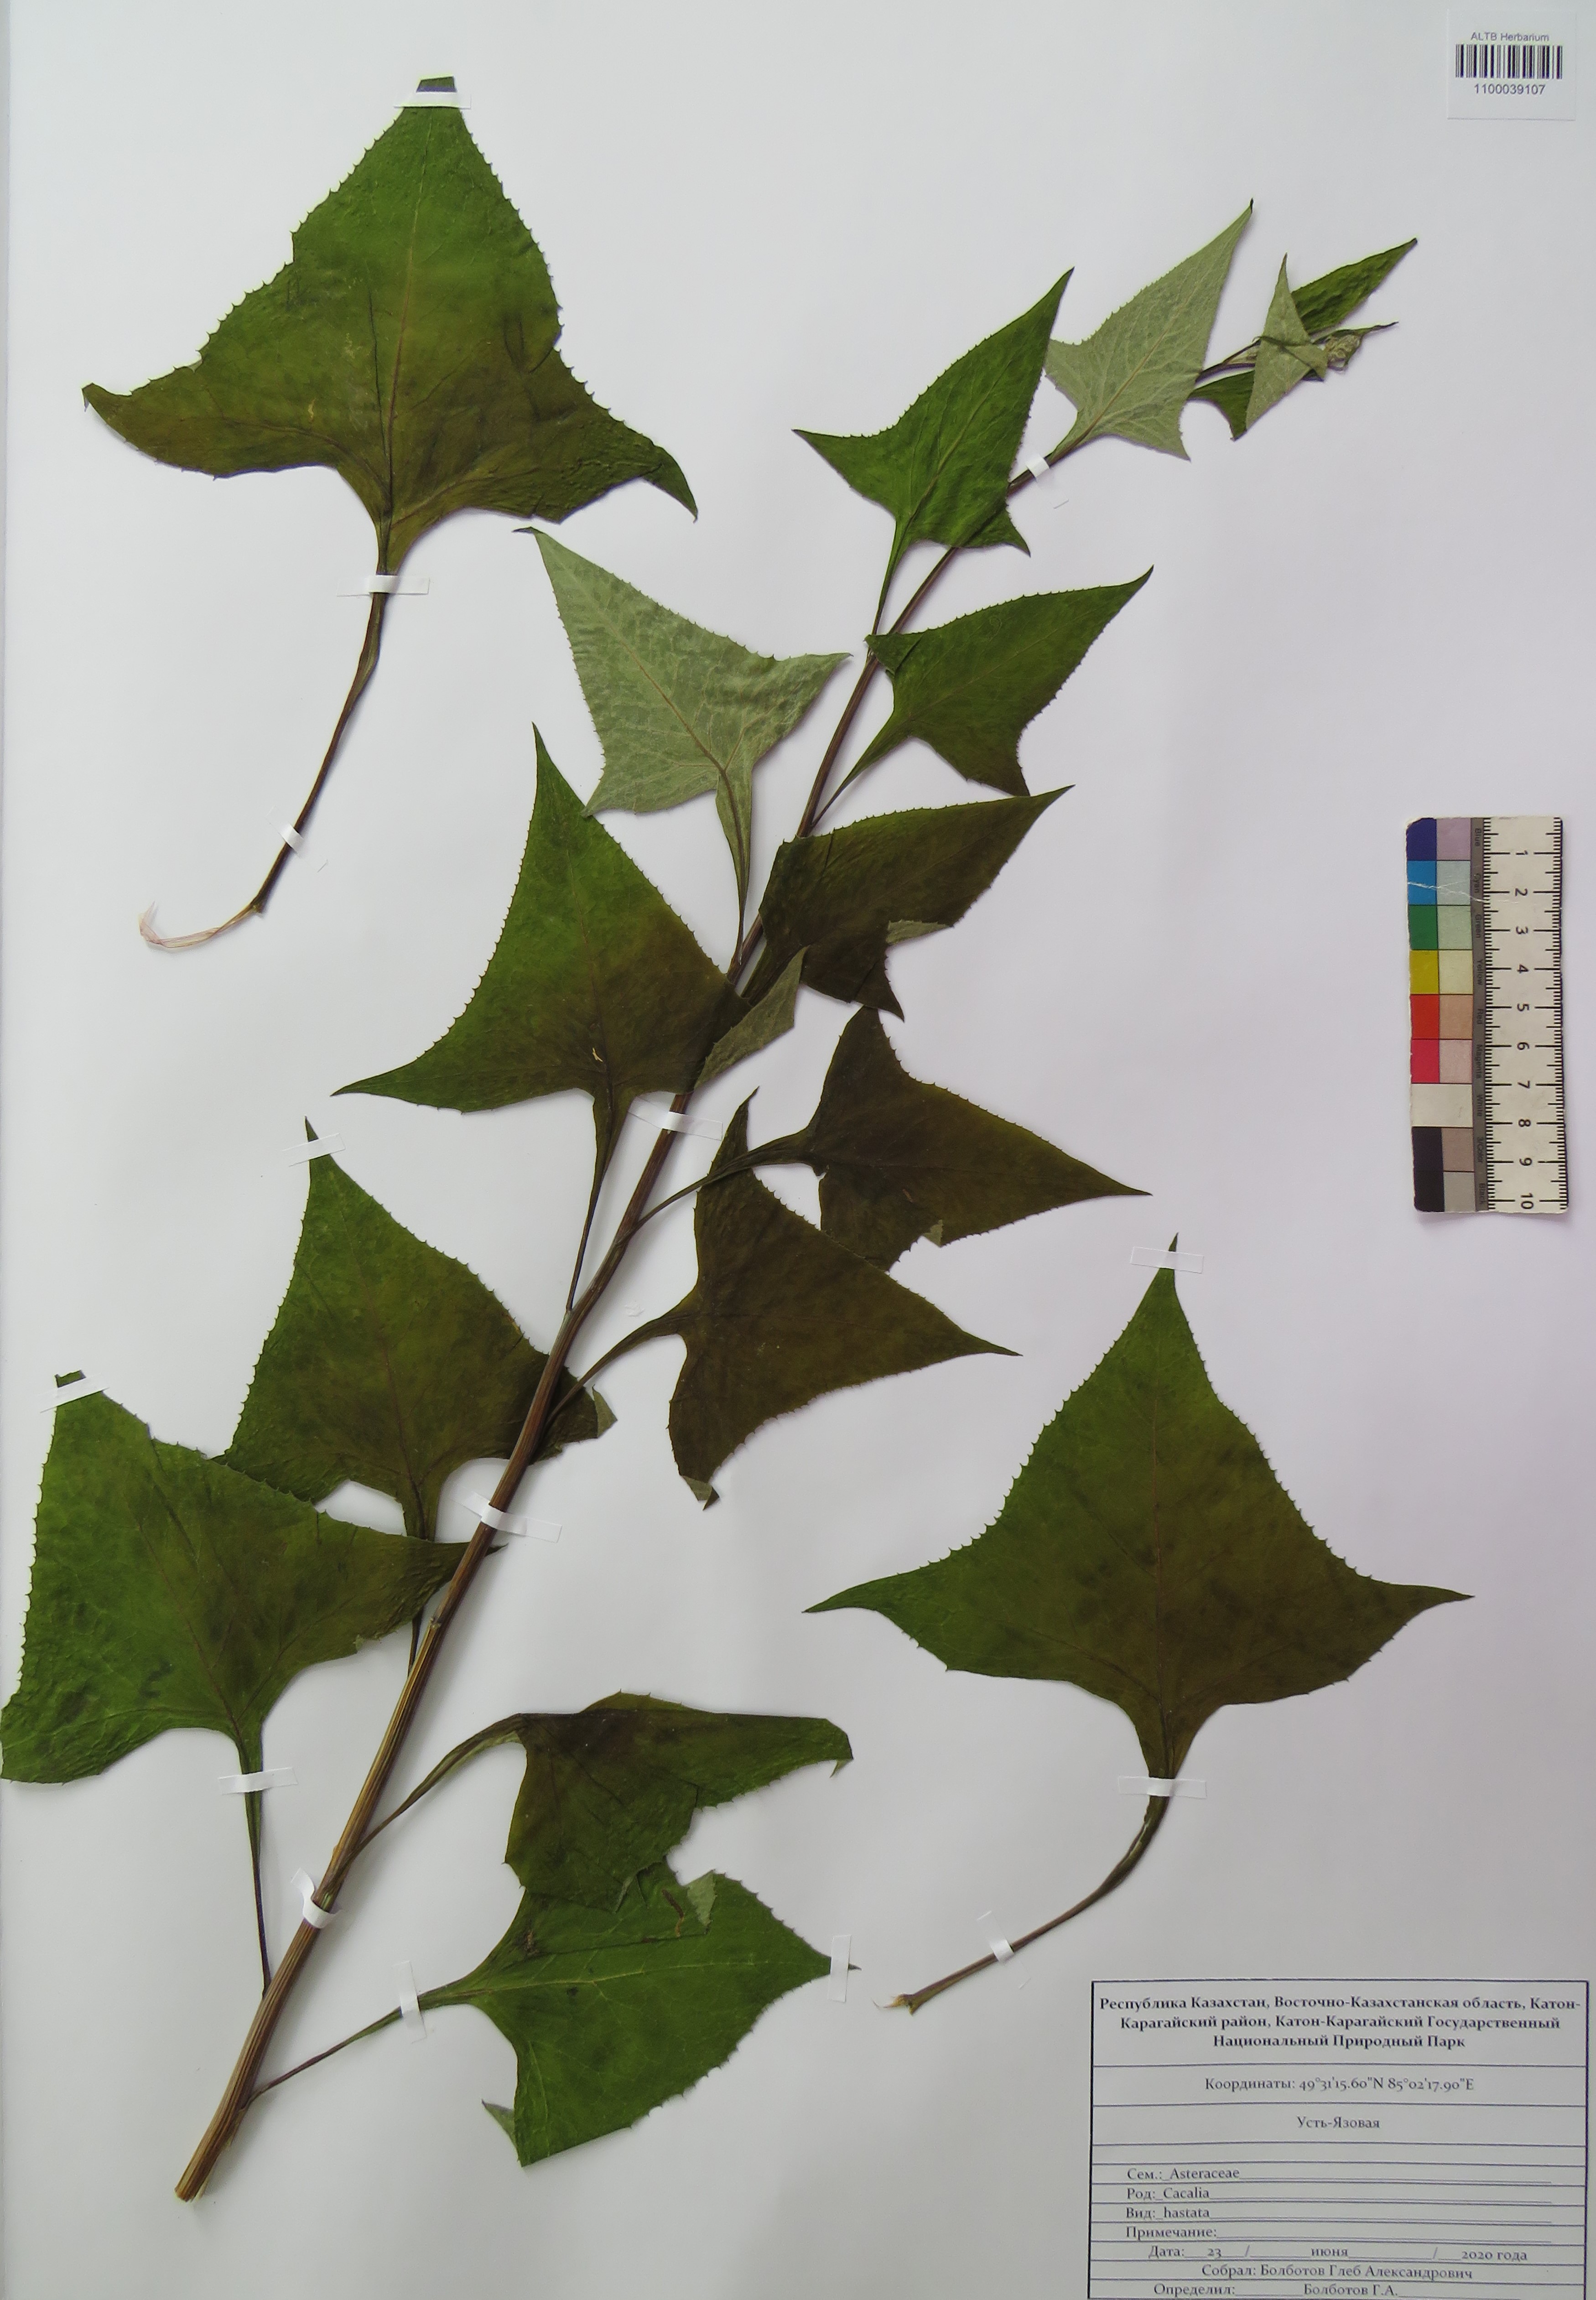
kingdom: Plantae
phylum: Tracheophyta
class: Magnoliopsida
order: Asterales
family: Asteraceae
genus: Parasenecio
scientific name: Parasenecio hastatus
